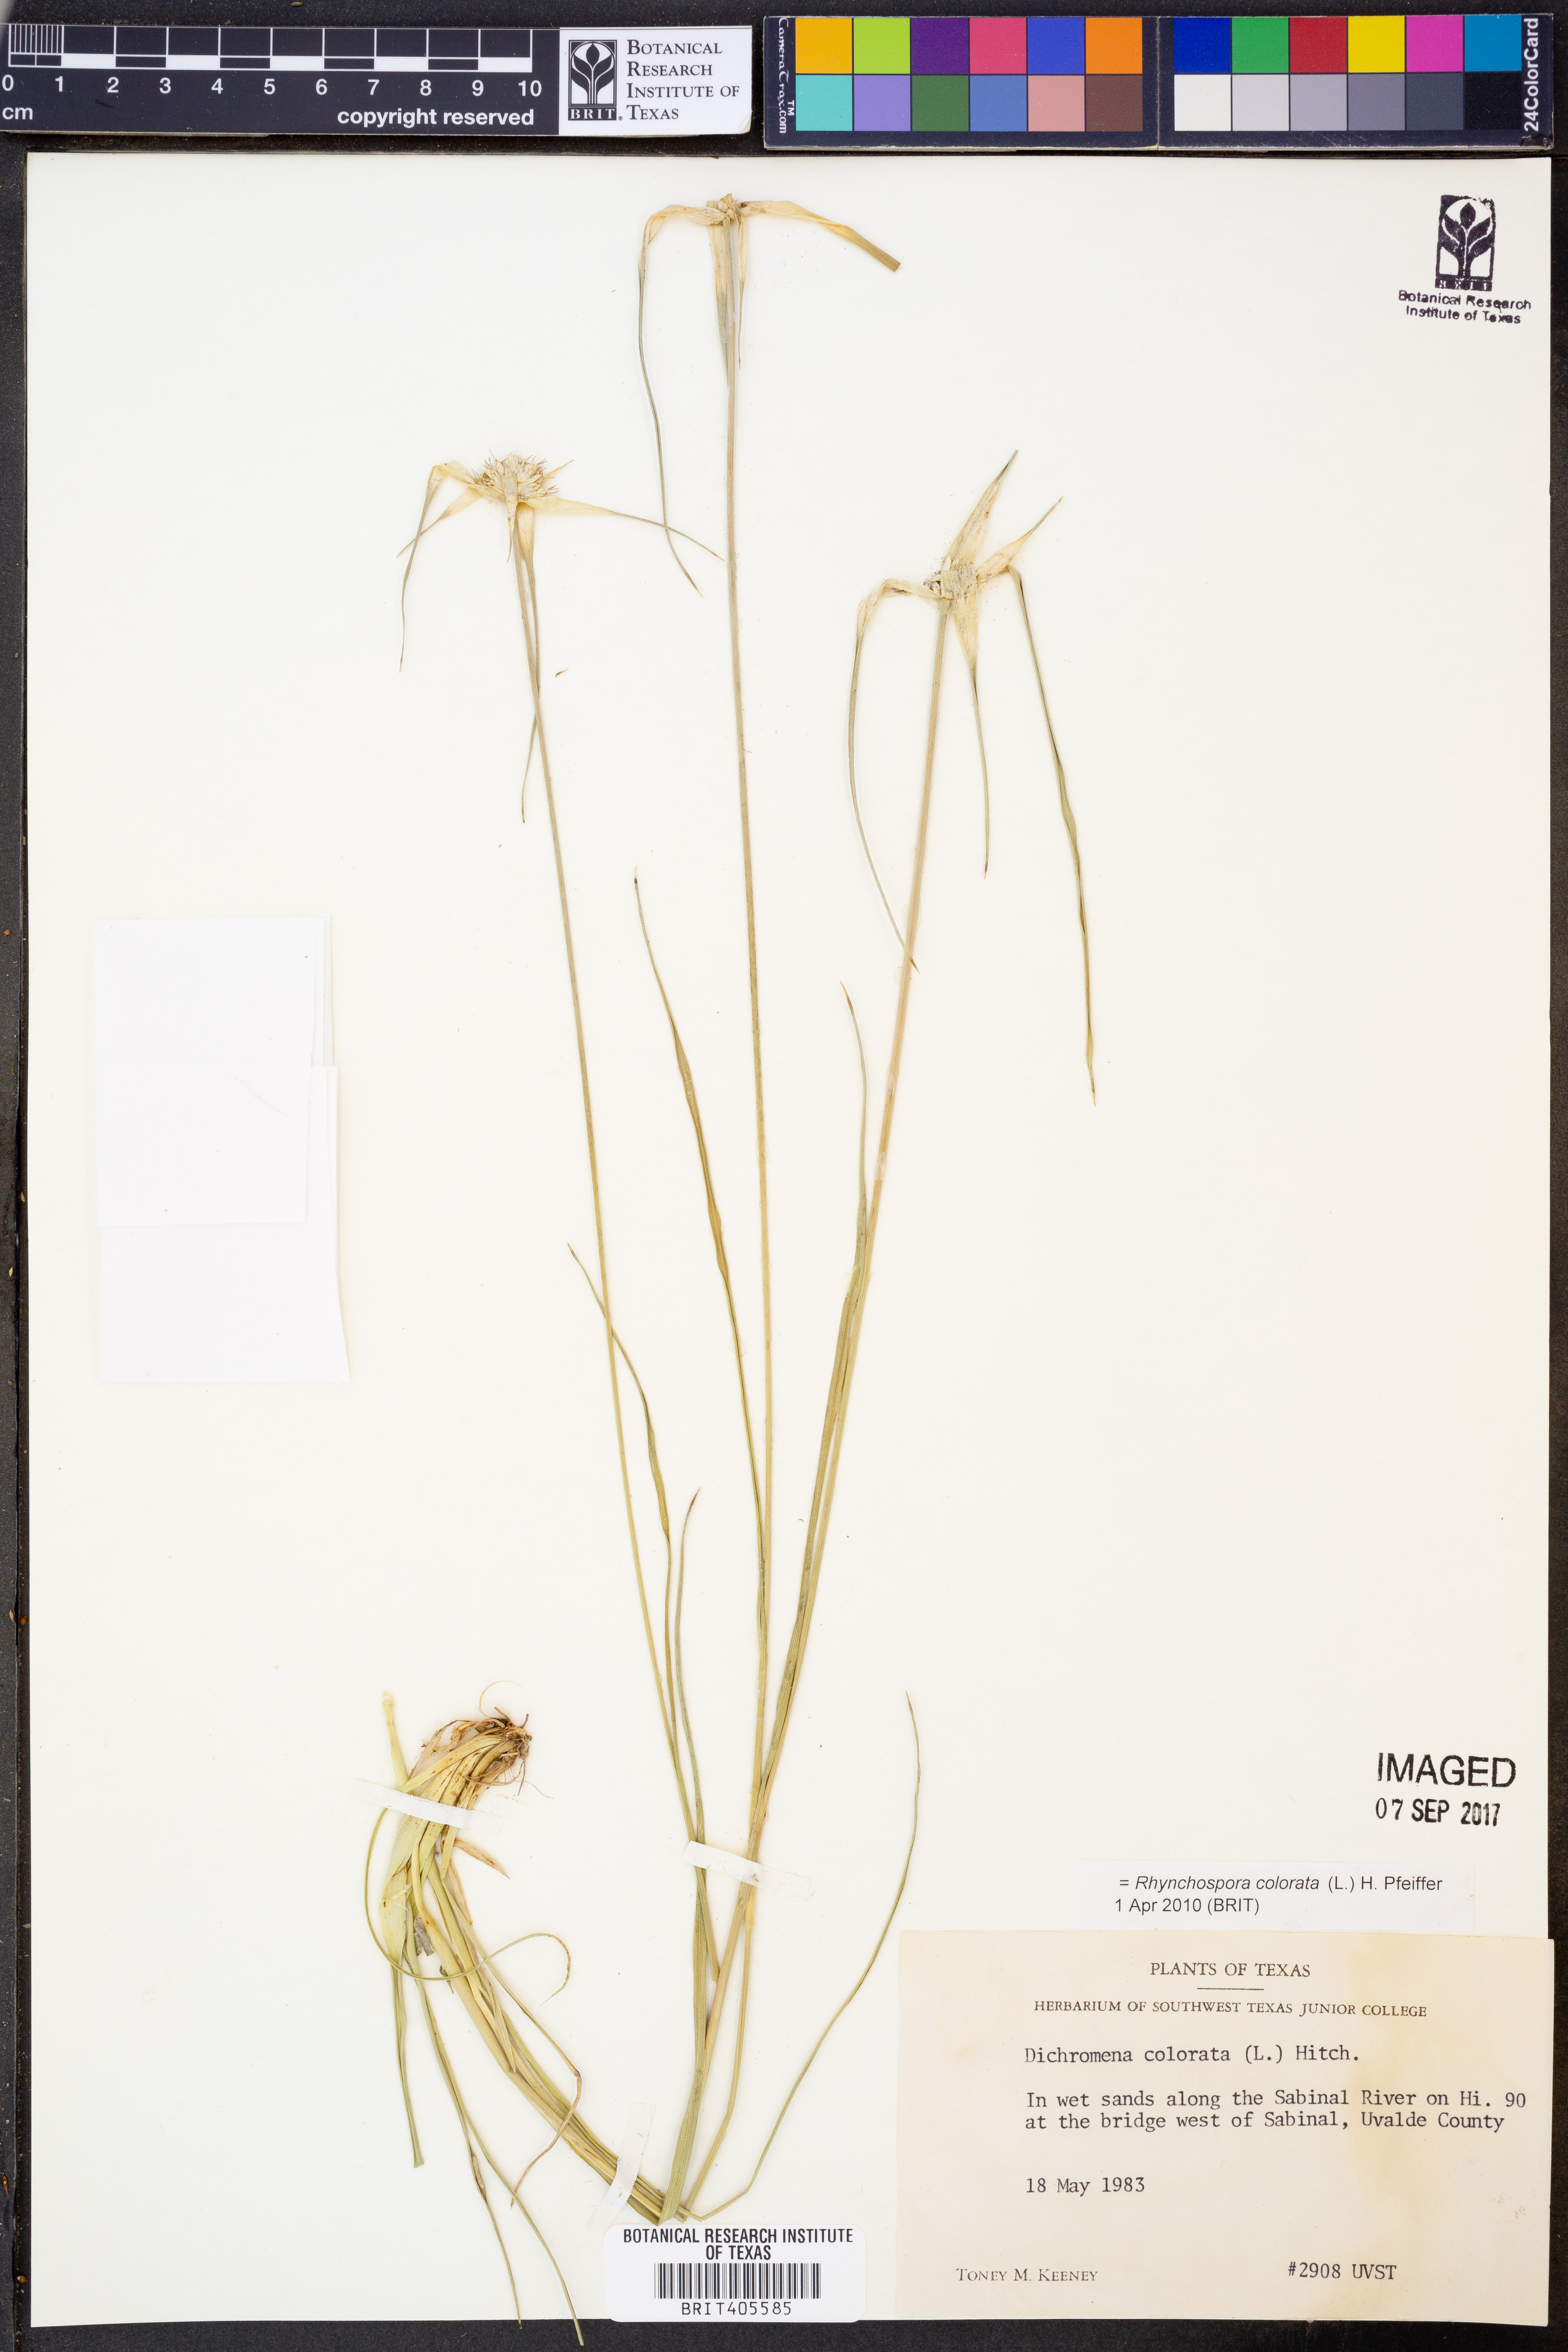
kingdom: Plantae
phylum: Tracheophyta
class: Liliopsida
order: Poales
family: Cyperaceae
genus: Rhynchospora
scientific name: Rhynchospora colorata
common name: Star sedge
